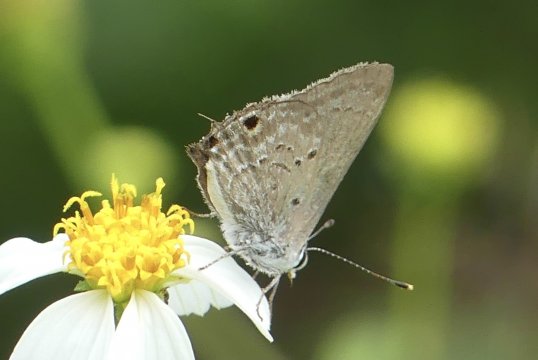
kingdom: Animalia
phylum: Arthropoda
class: Insecta
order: Lepidoptera
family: Lycaenidae
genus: Thecla
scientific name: Thecla limenia
